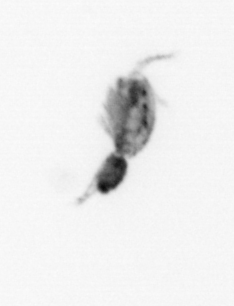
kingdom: Animalia
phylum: Arthropoda
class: Copepoda
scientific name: Copepoda
